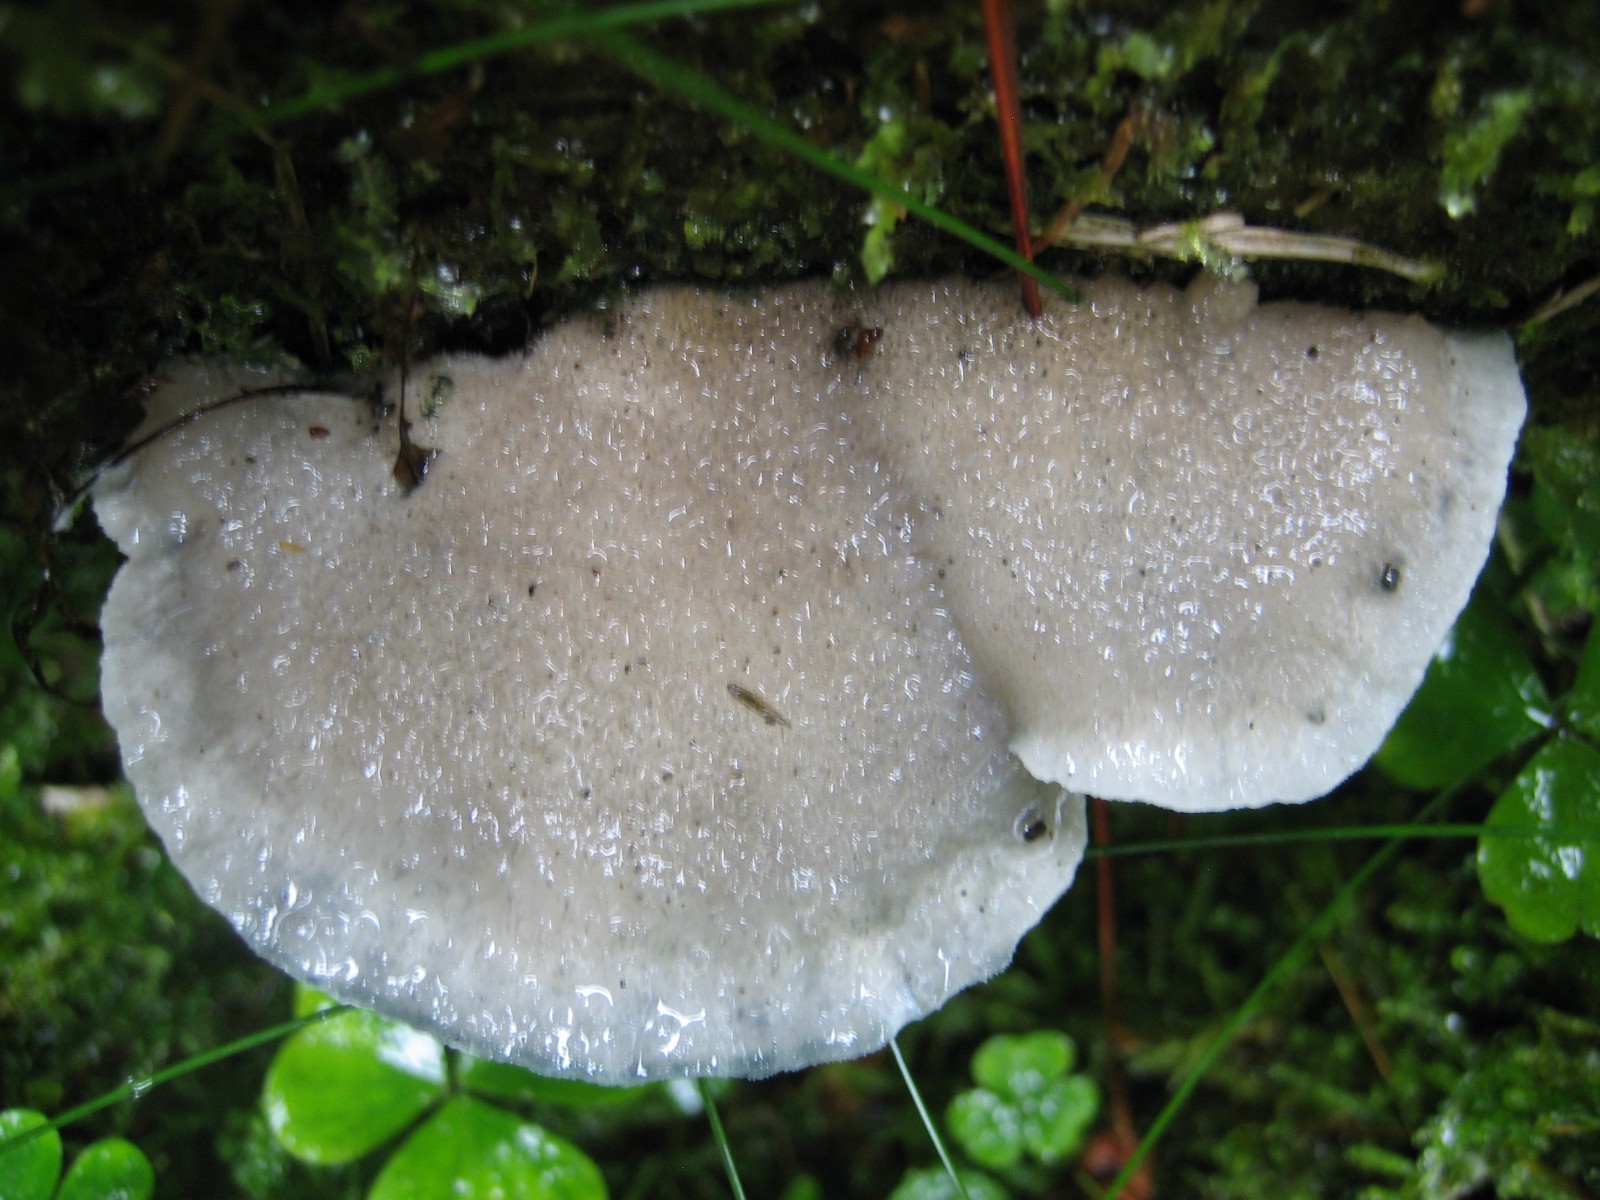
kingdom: Fungi
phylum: Basidiomycota
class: Agaricomycetes
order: Polyporales
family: Polyporaceae
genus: Cyanosporus
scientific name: Cyanosporus caesius
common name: blålig kødporesvamp
